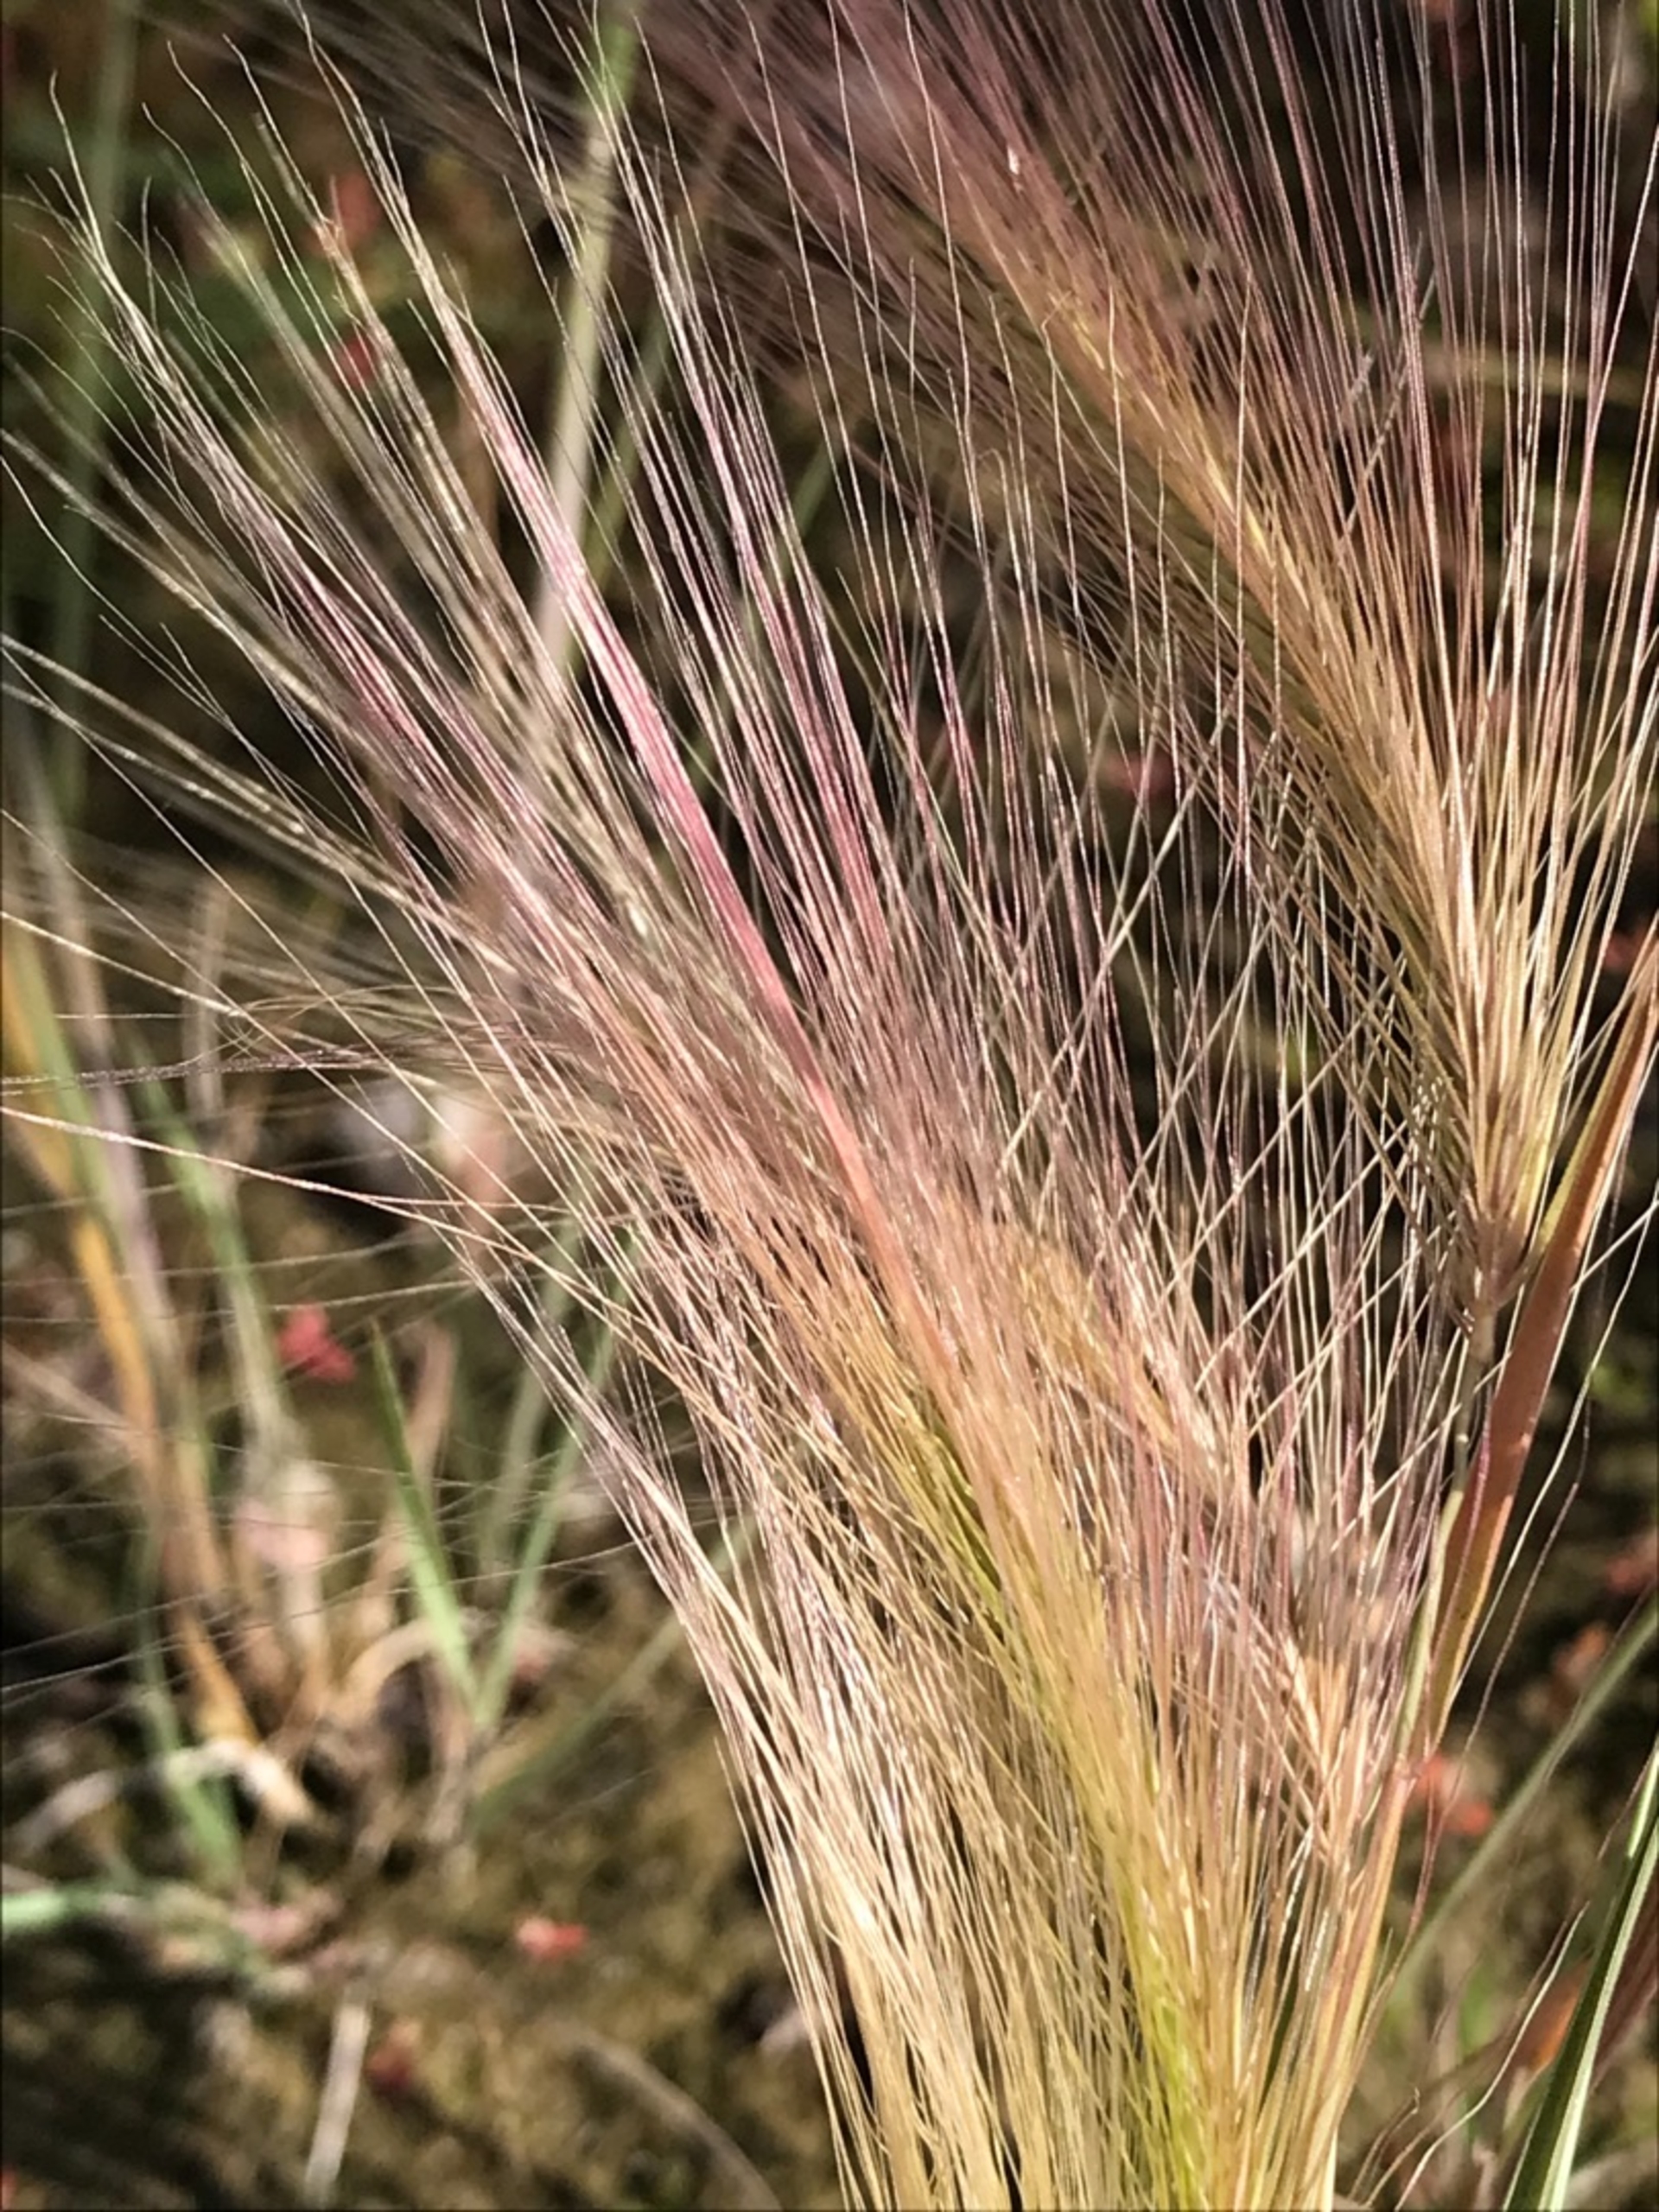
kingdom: Plantae
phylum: Tracheophyta
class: Liliopsida
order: Poales
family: Poaceae
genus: Hordeum
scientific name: Hordeum jubatum
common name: Egernhale-byg
